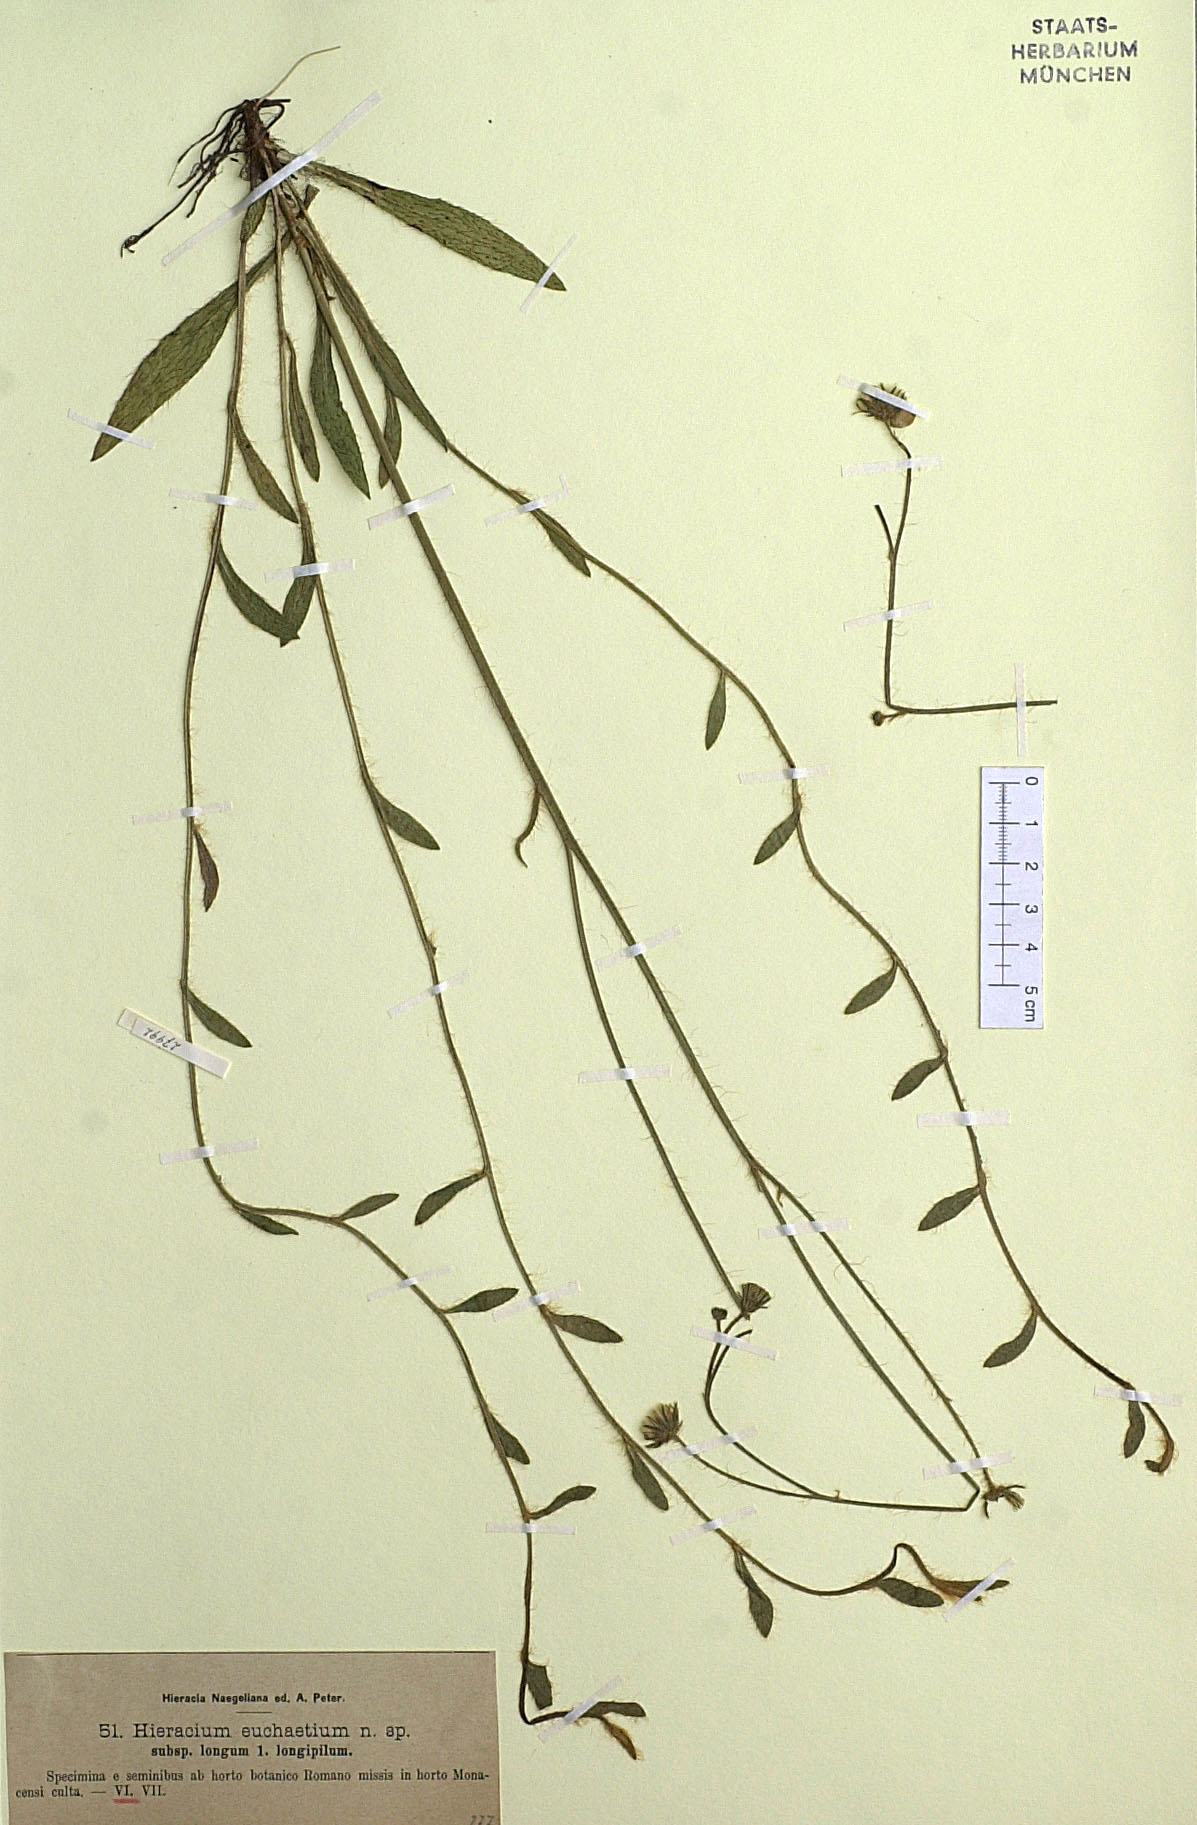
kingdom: Plantae
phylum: Tracheophyta
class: Magnoliopsida
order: Asterales
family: Asteraceae
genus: Pilosella
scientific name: Pilosella euchaetia
